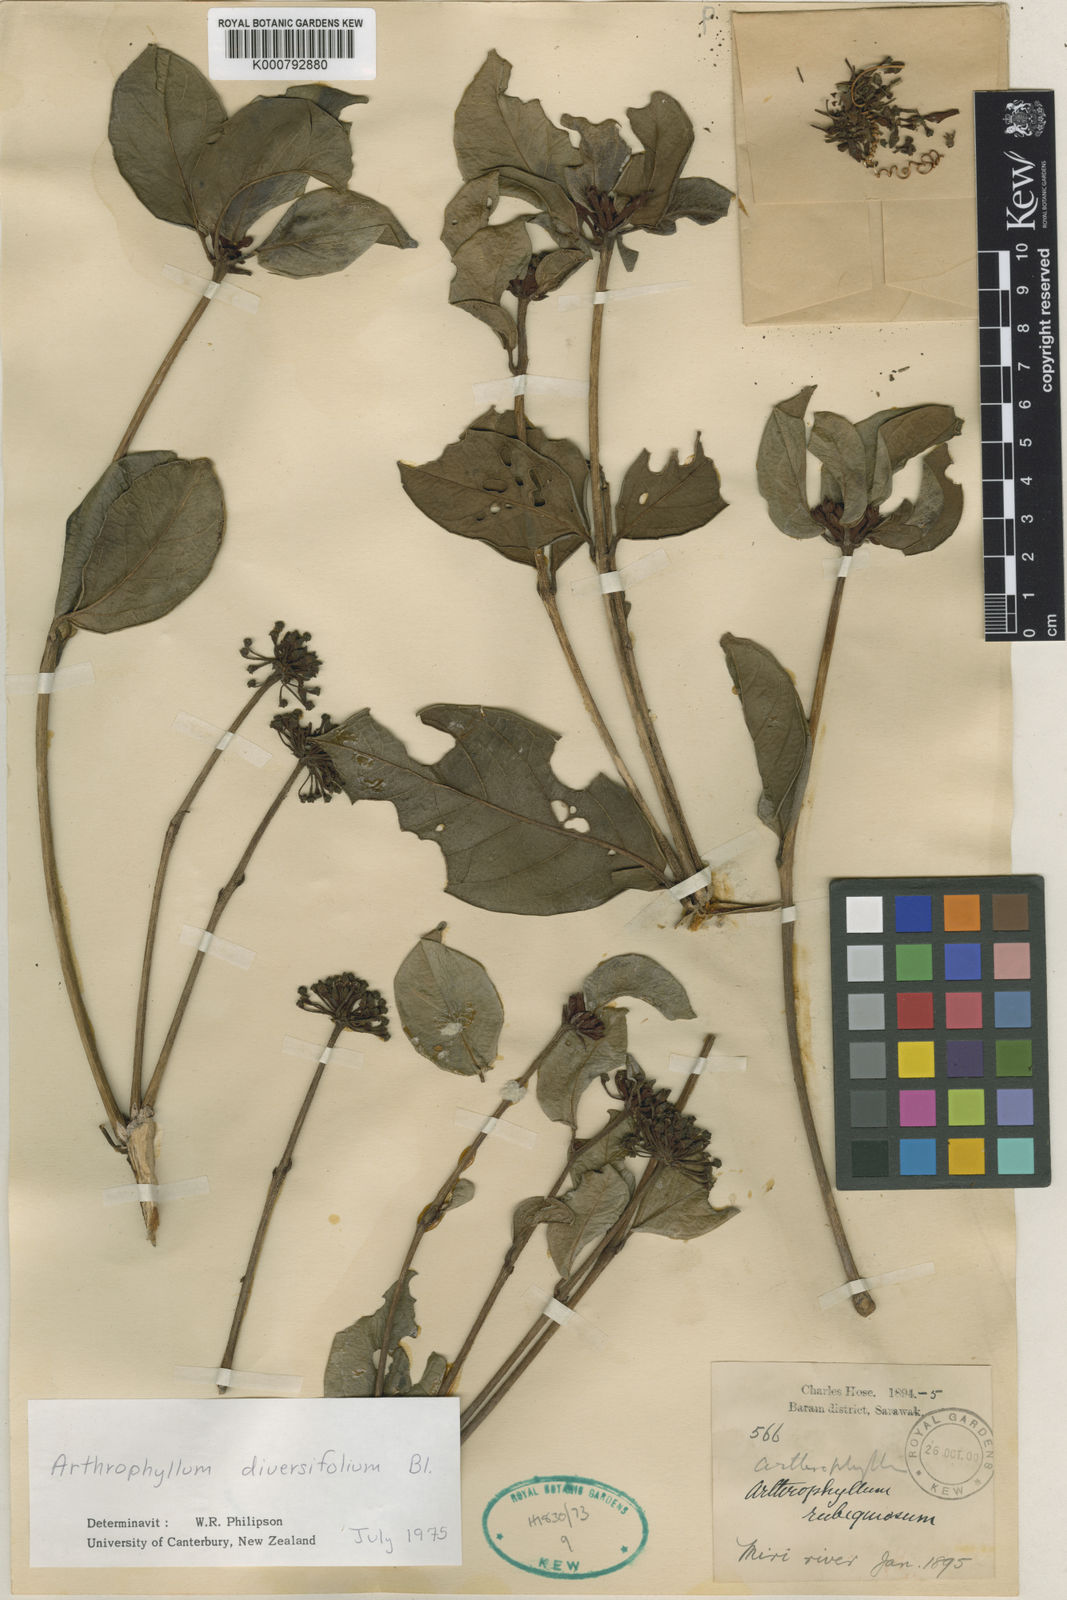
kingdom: Plantae
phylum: Tracheophyta
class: Magnoliopsida
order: Apiales
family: Araliaceae
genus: Polyscias
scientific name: Polyscias diversifolia
